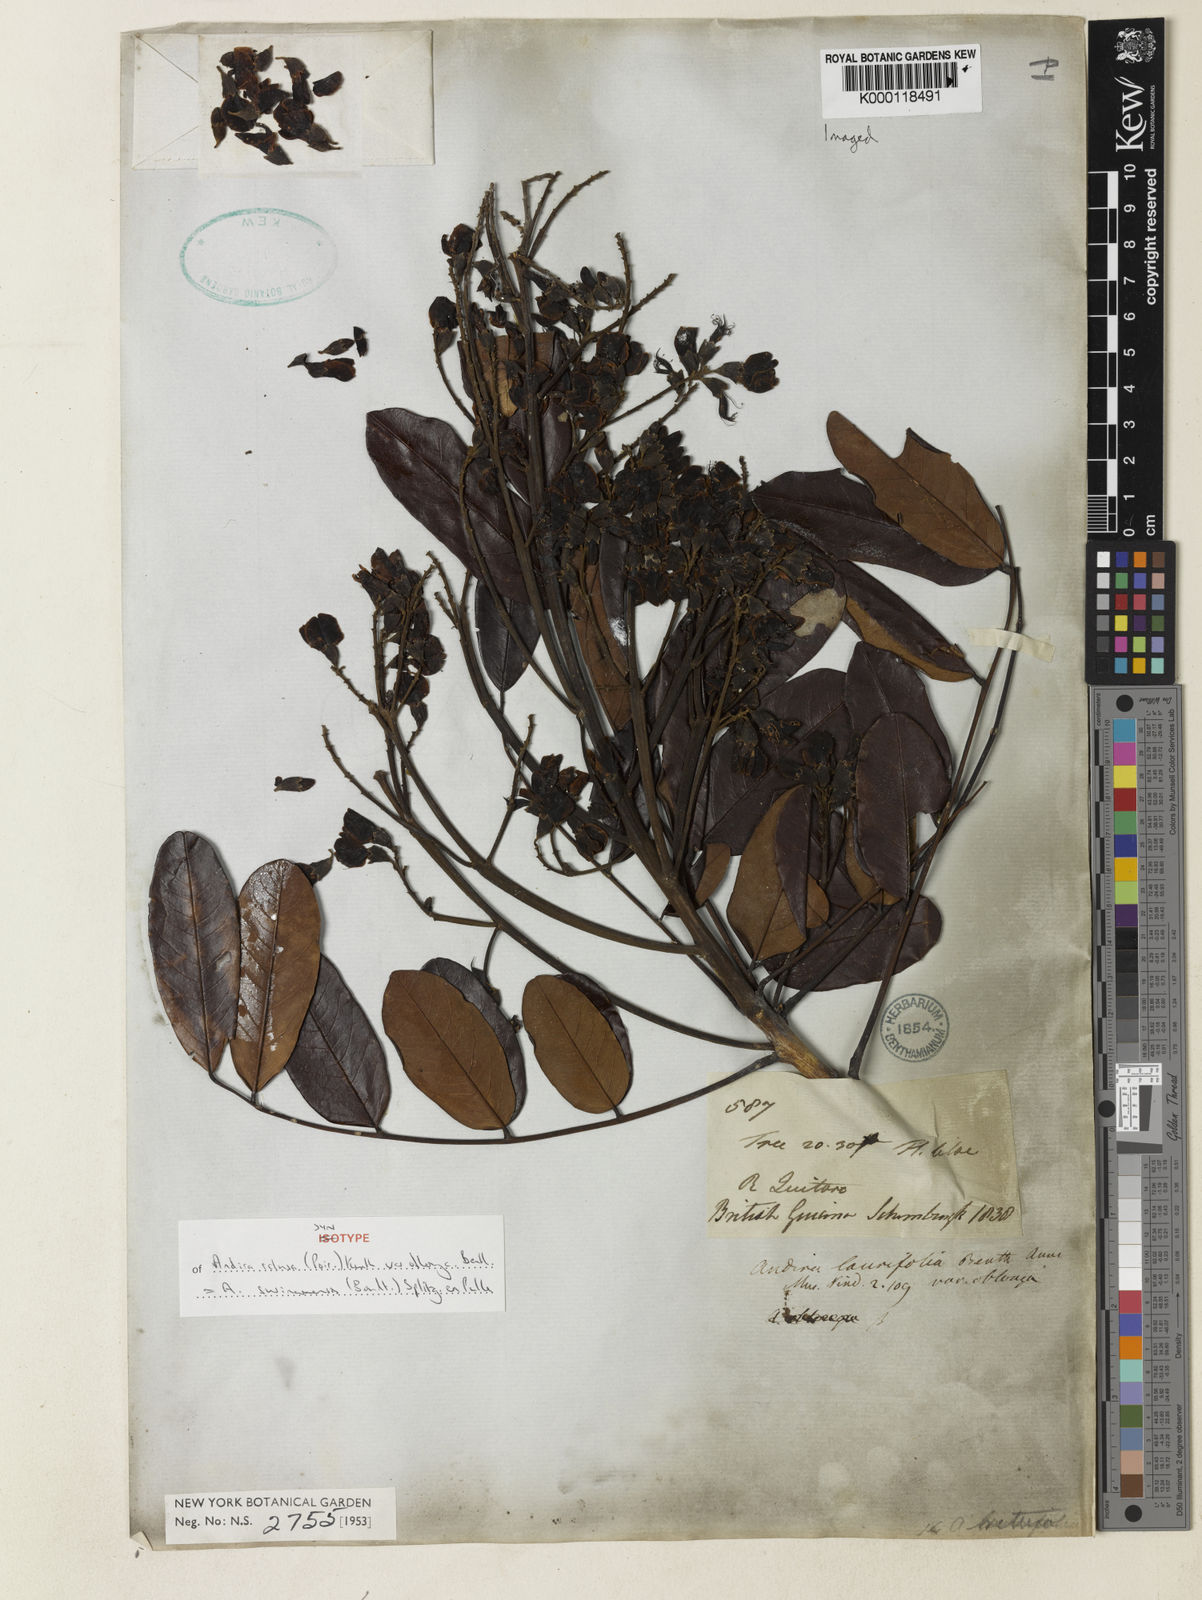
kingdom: Plantae
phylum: Tracheophyta
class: Magnoliopsida
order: Fabales
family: Fabaceae
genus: Andira
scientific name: Andira
